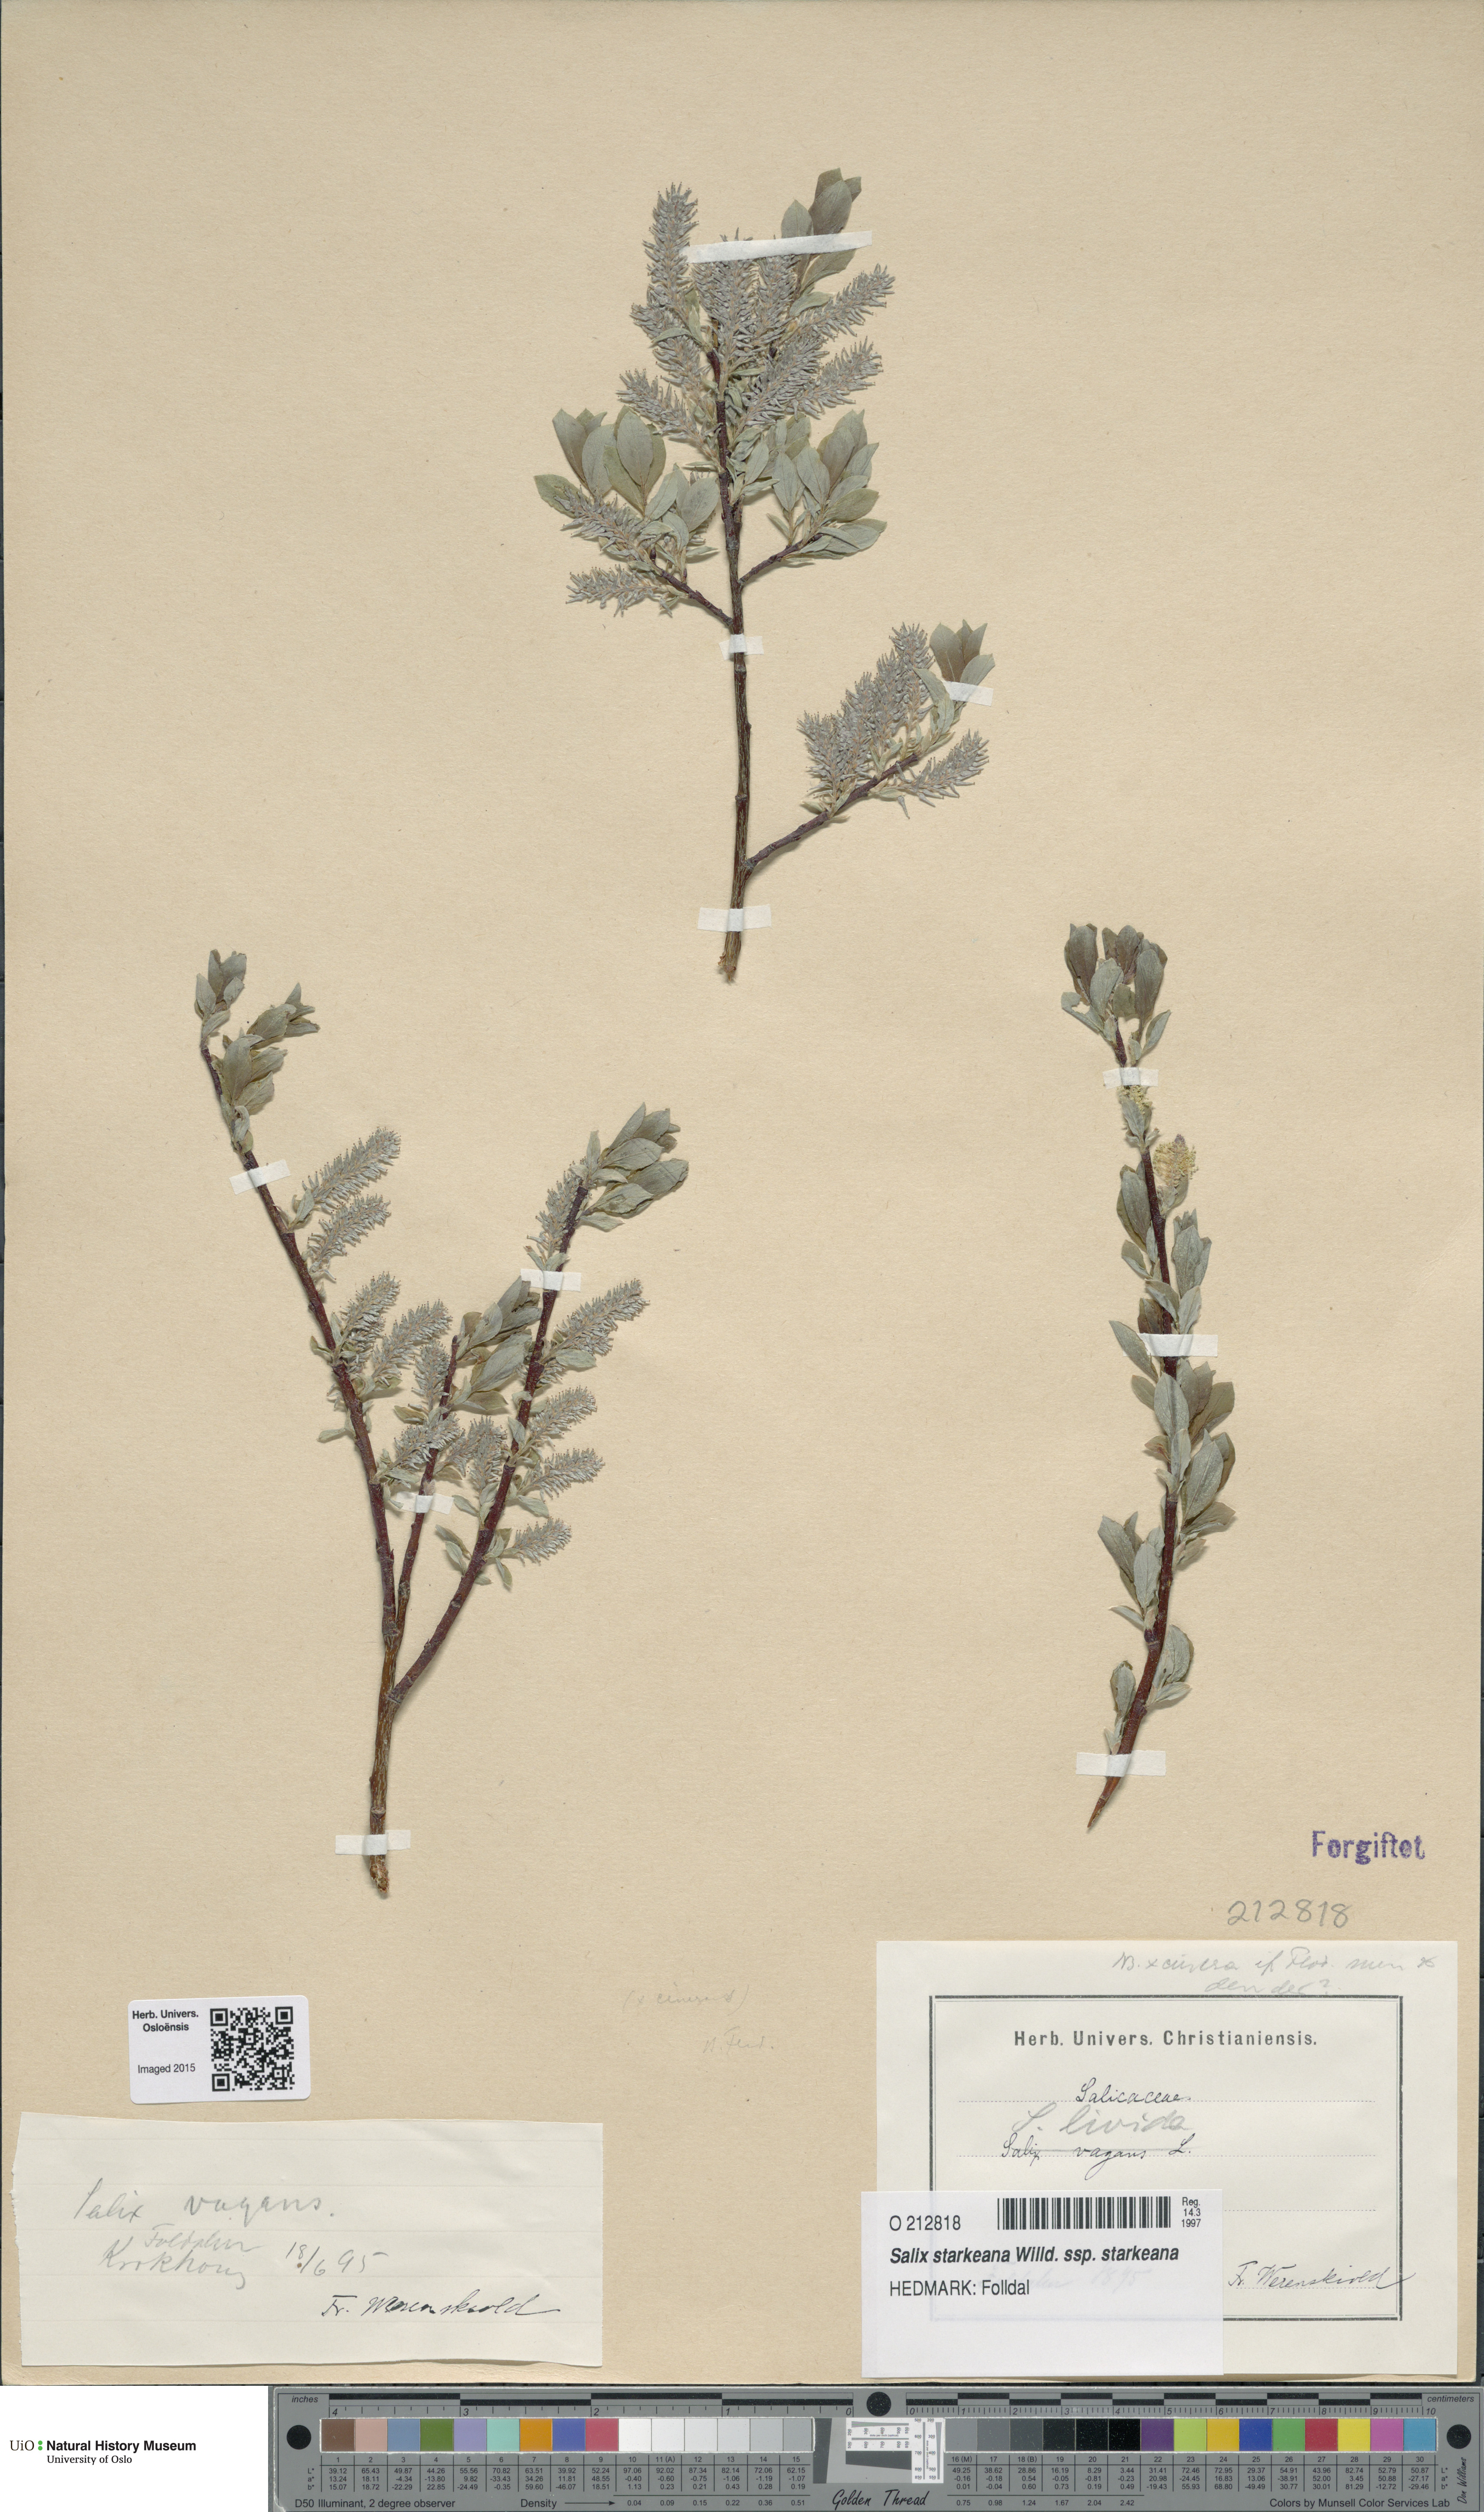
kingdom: Plantae
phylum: Tracheophyta
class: Magnoliopsida
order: Malpighiales
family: Salicaceae
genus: Salix
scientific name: Salix starkeana
